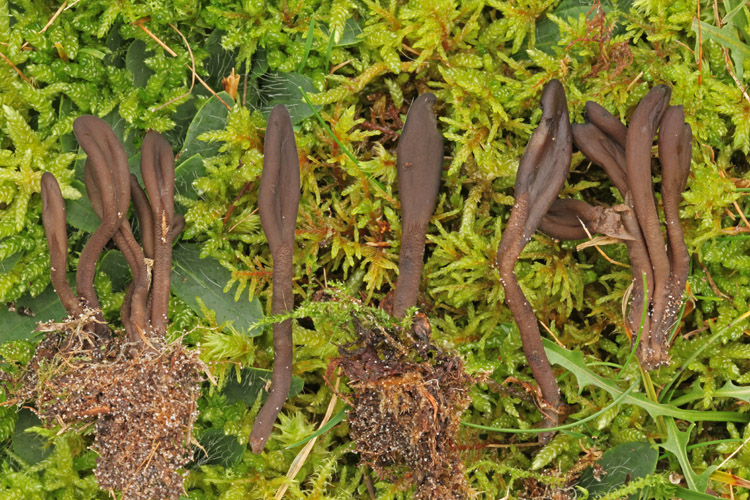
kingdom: Fungi
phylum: Ascomycota
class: Geoglossomycetes
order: Geoglossales
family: Geoglossaceae
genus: Hemileucoglossum
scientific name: Hemileucoglossum elongatum
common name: småsporet jordtunge
